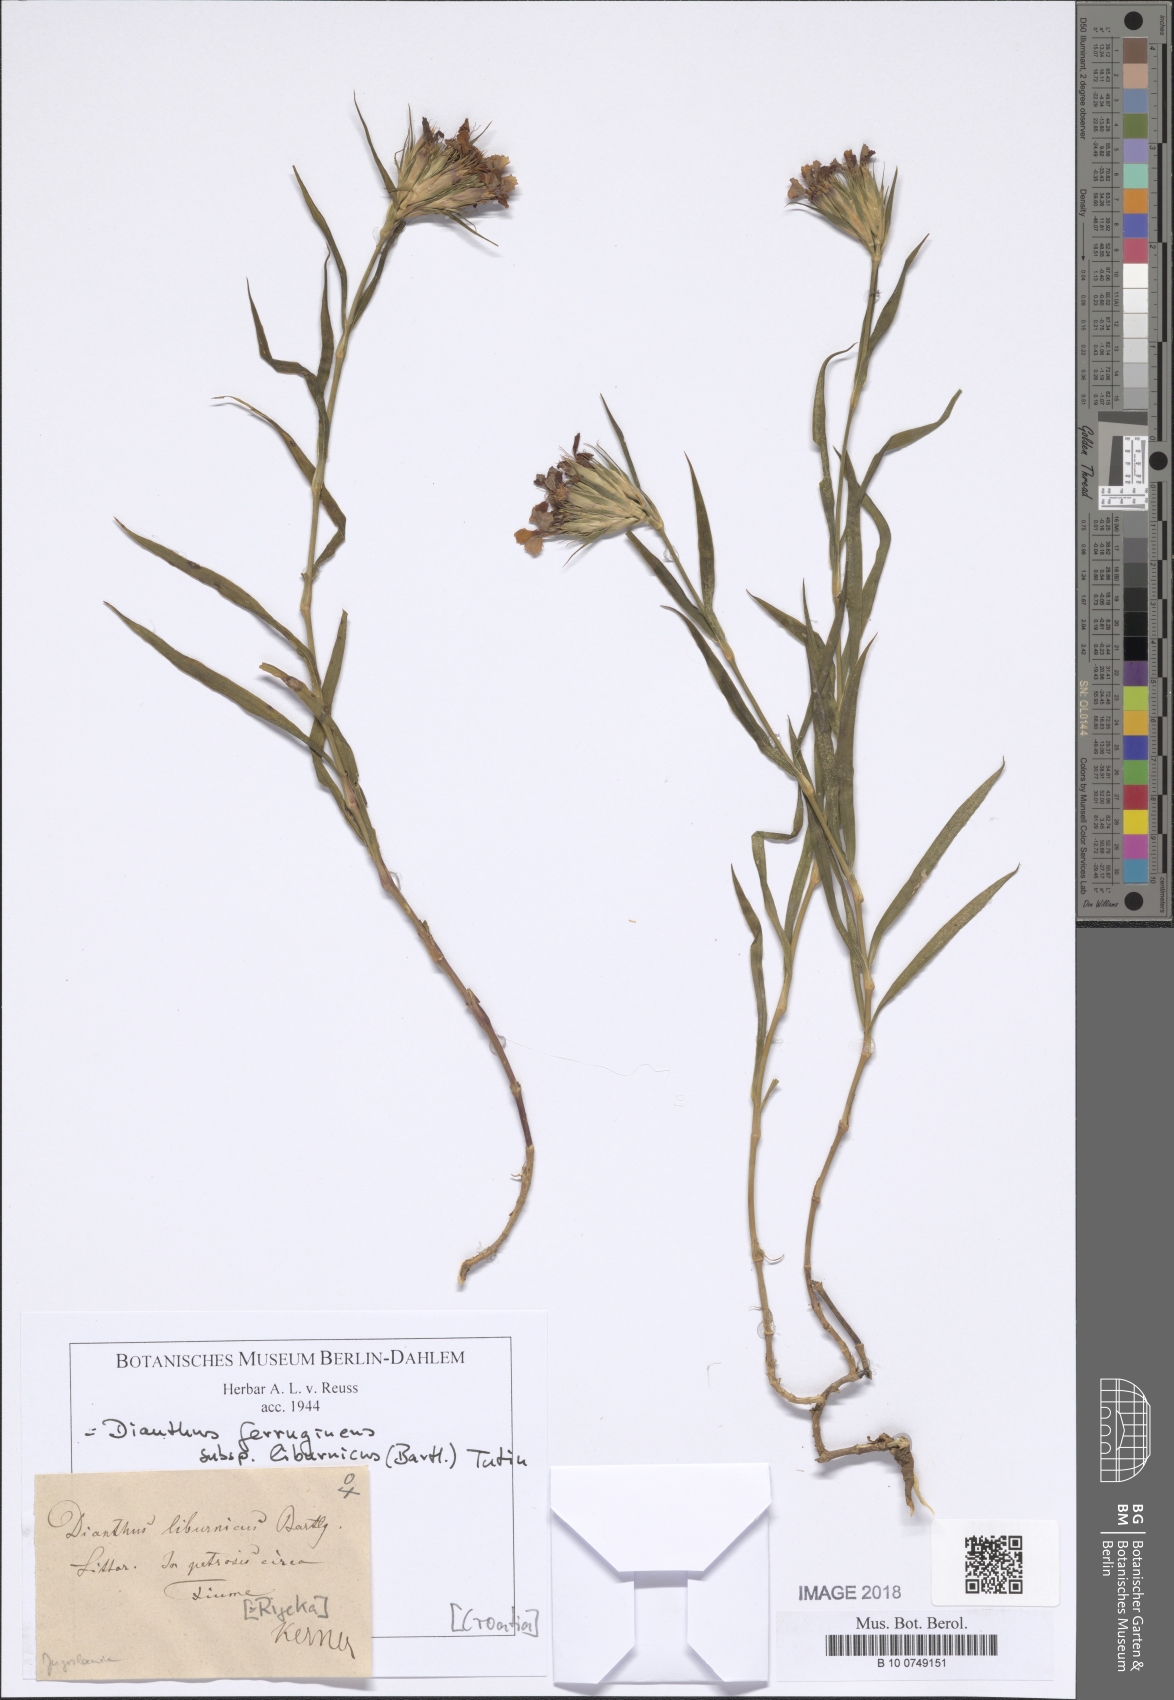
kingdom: Plantae
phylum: Tracheophyta
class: Magnoliopsida
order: Caryophyllales
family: Caryophyllaceae
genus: Dianthus
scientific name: Dianthus balbisii
